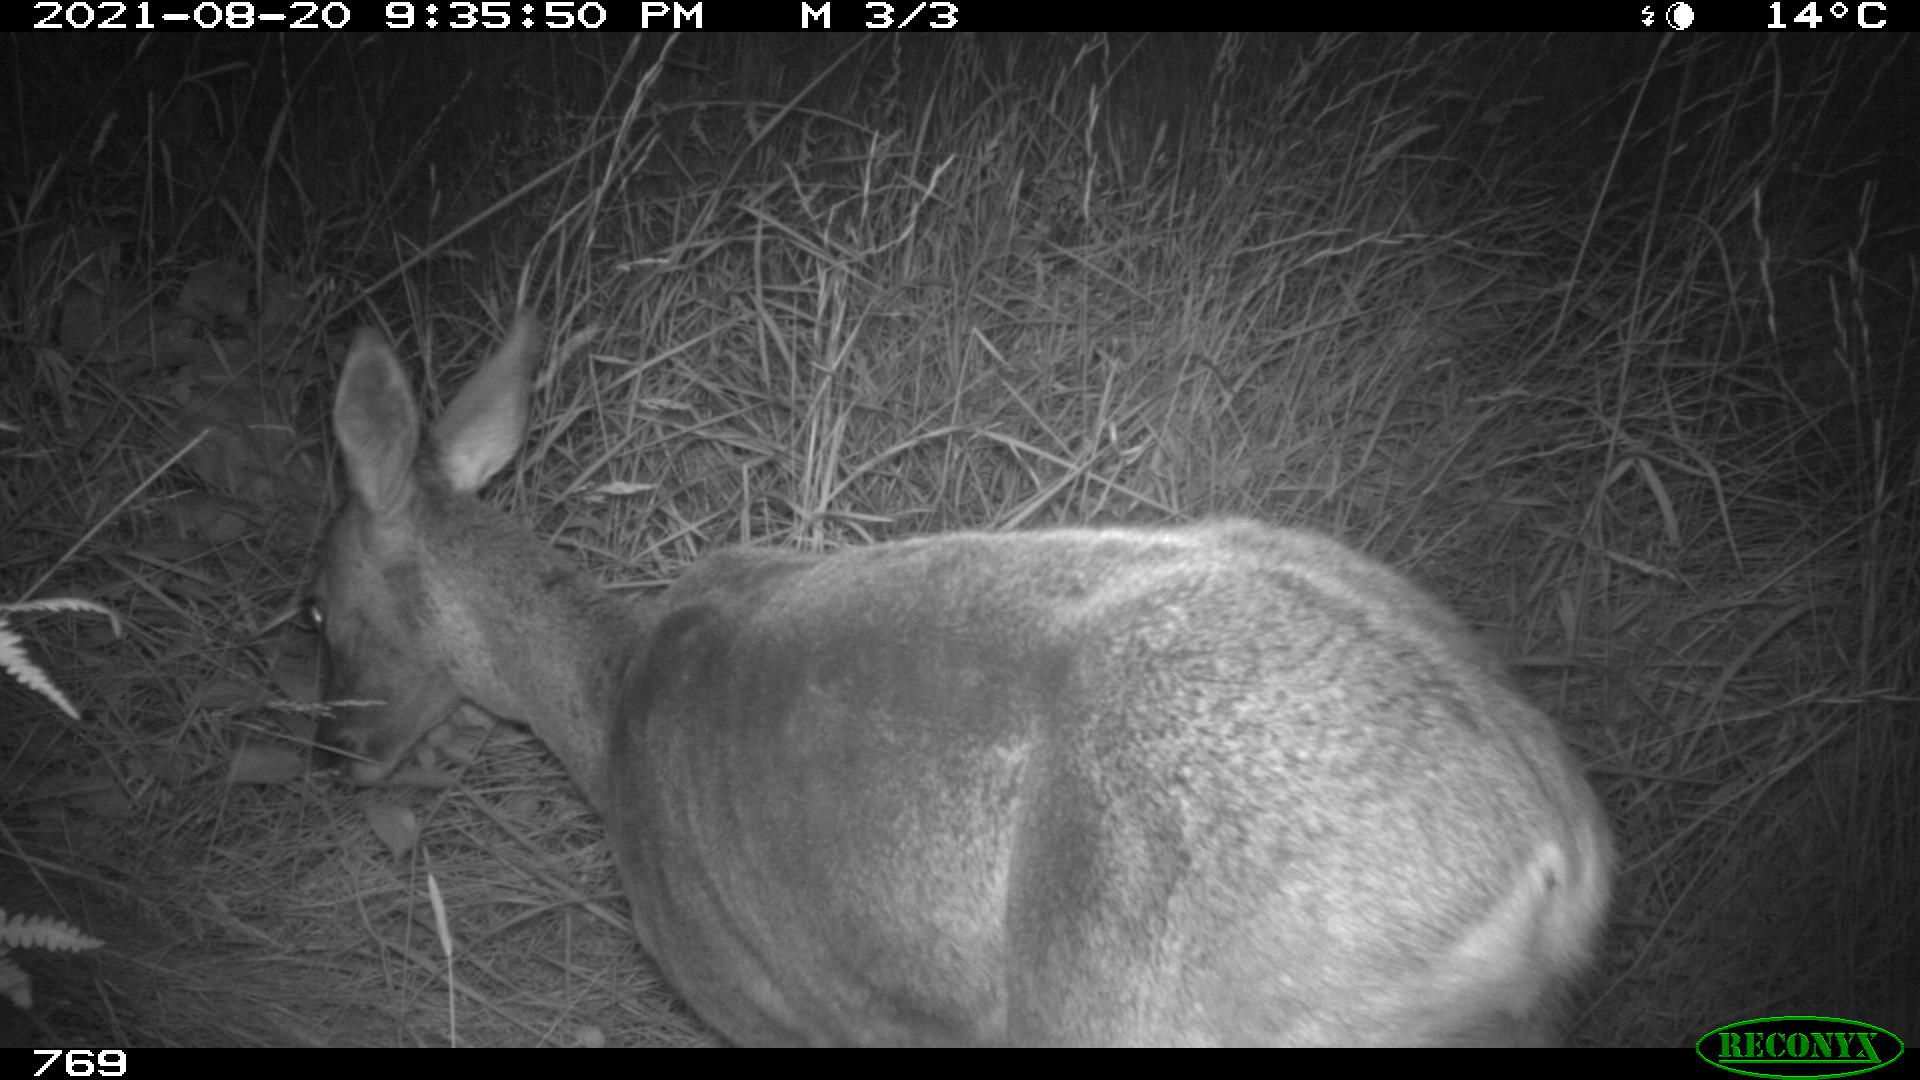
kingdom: Animalia
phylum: Chordata
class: Mammalia
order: Artiodactyla
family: Cervidae
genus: Capreolus
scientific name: Capreolus capreolus
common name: Western roe deer
